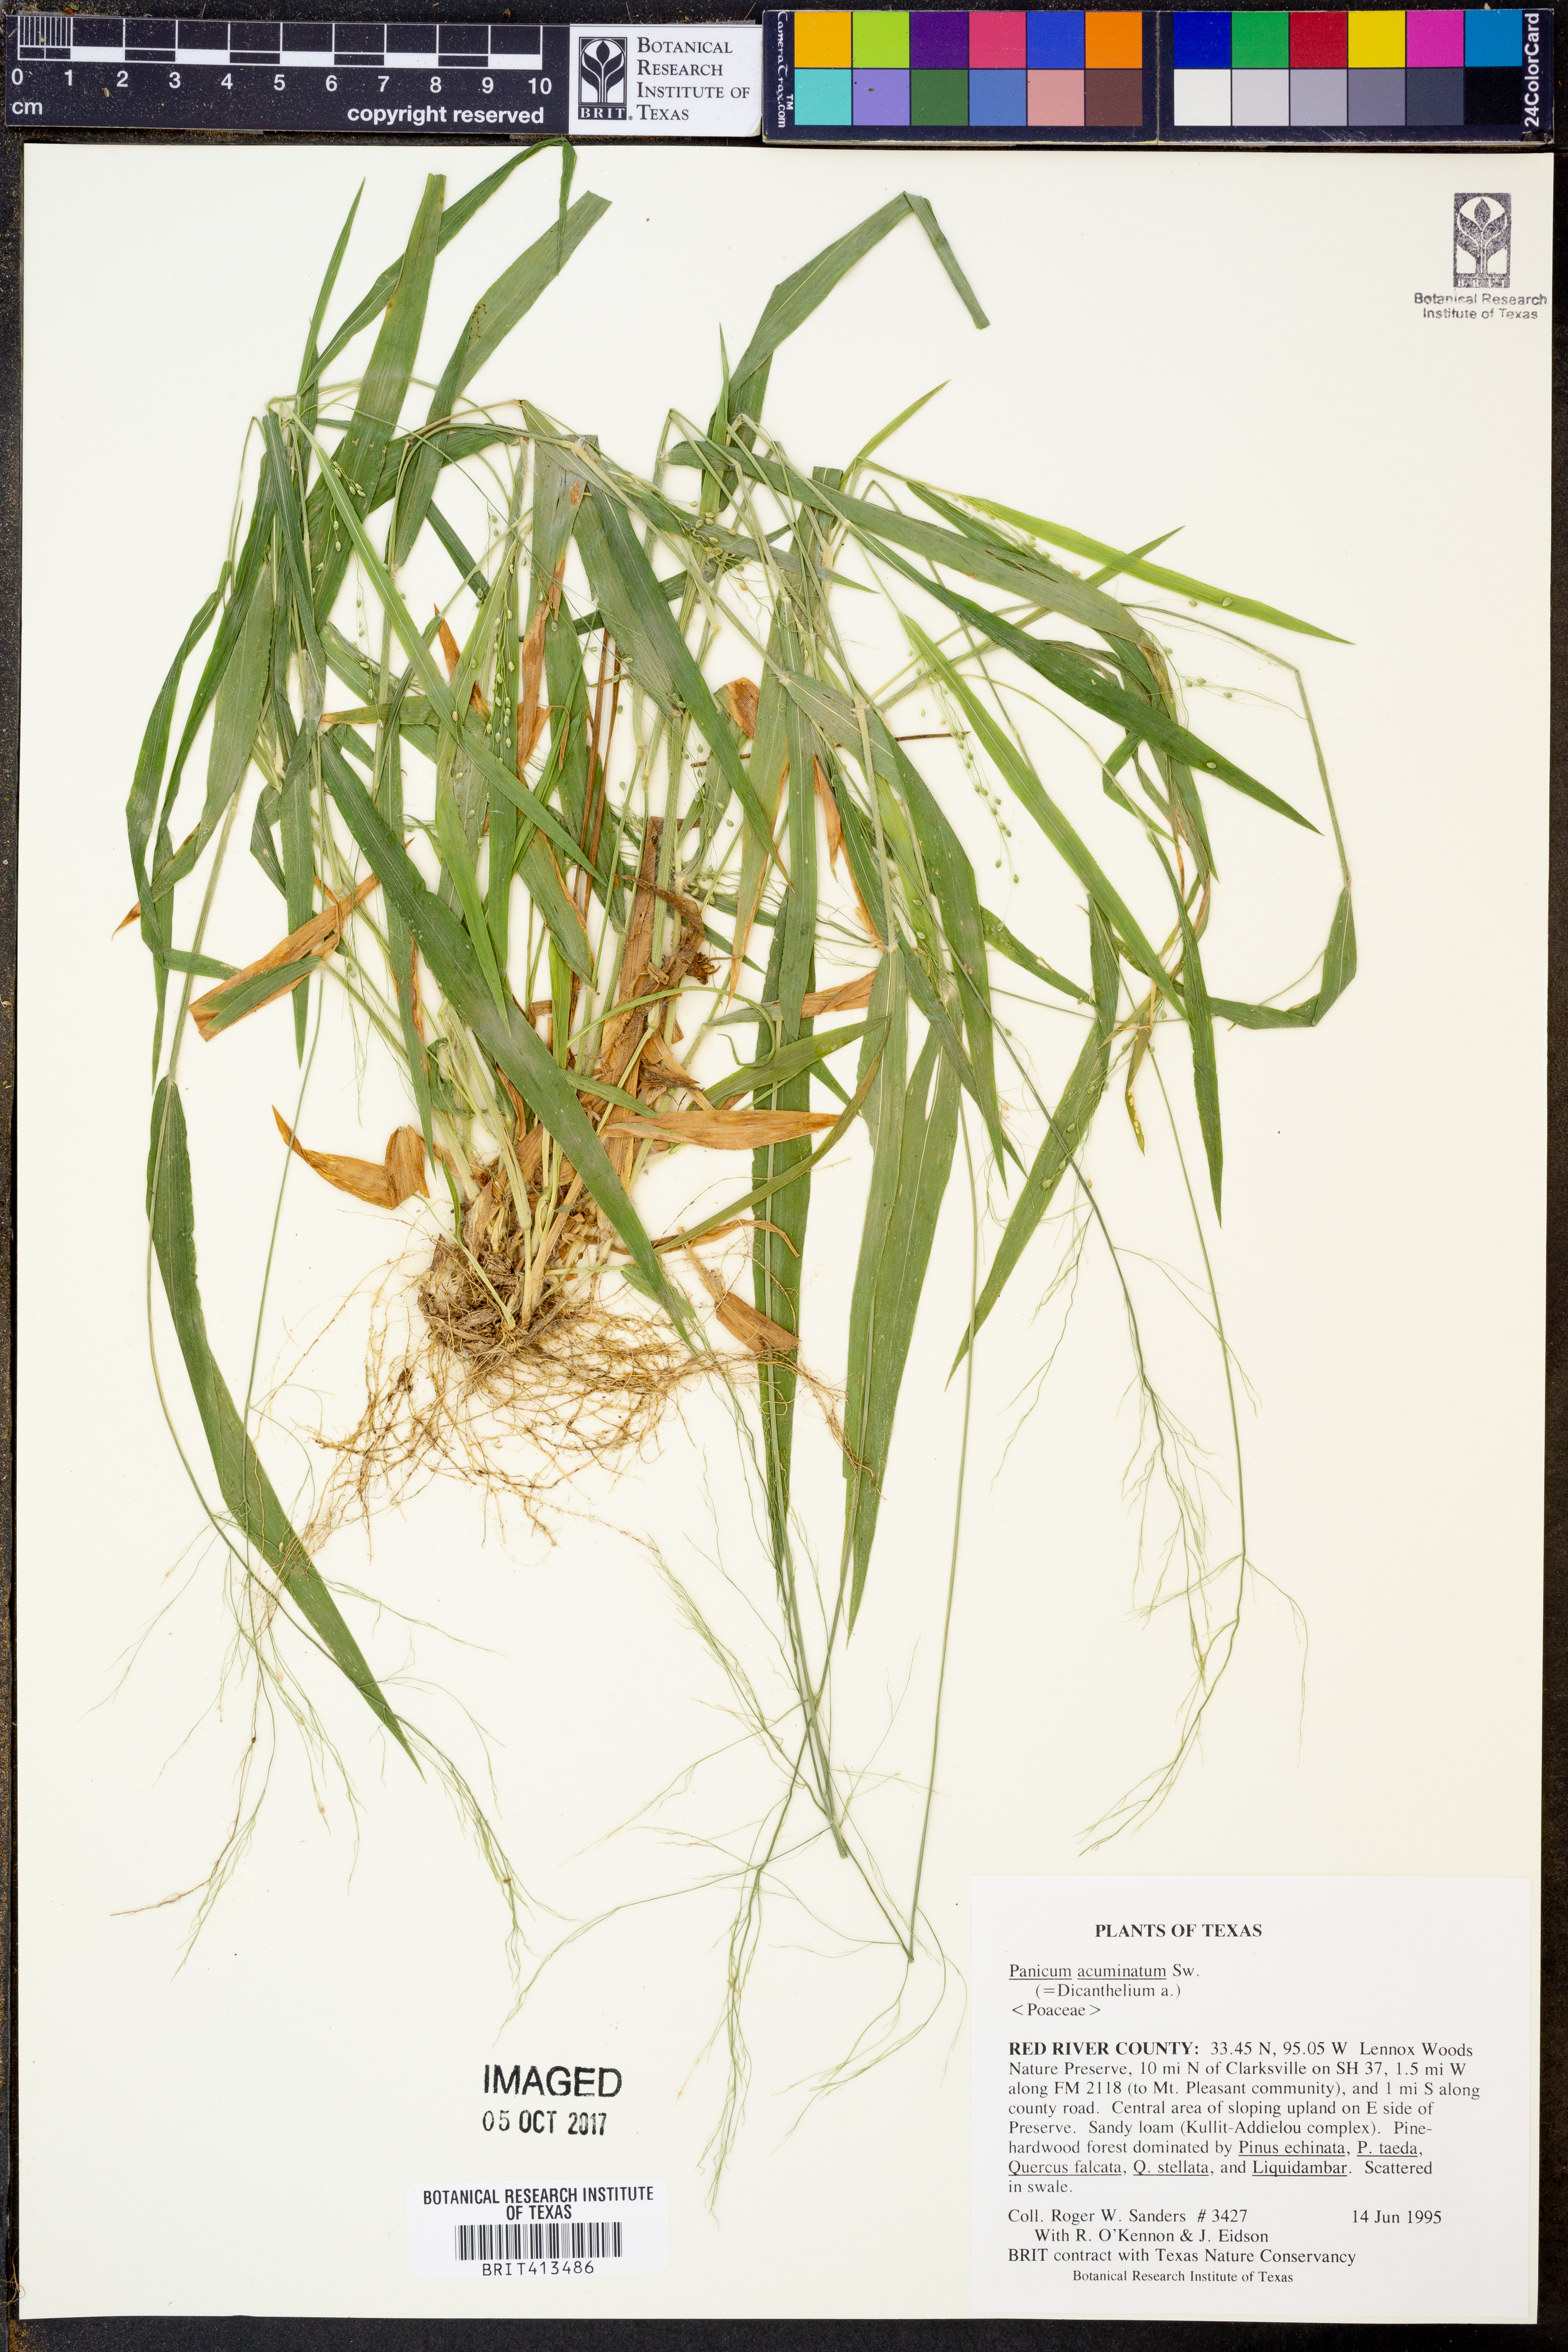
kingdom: Plantae
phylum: Tracheophyta
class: Liliopsida
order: Poales
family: Poaceae
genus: Dichanthelium
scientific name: Dichanthelium acuminatum
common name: Hairy panic grass
